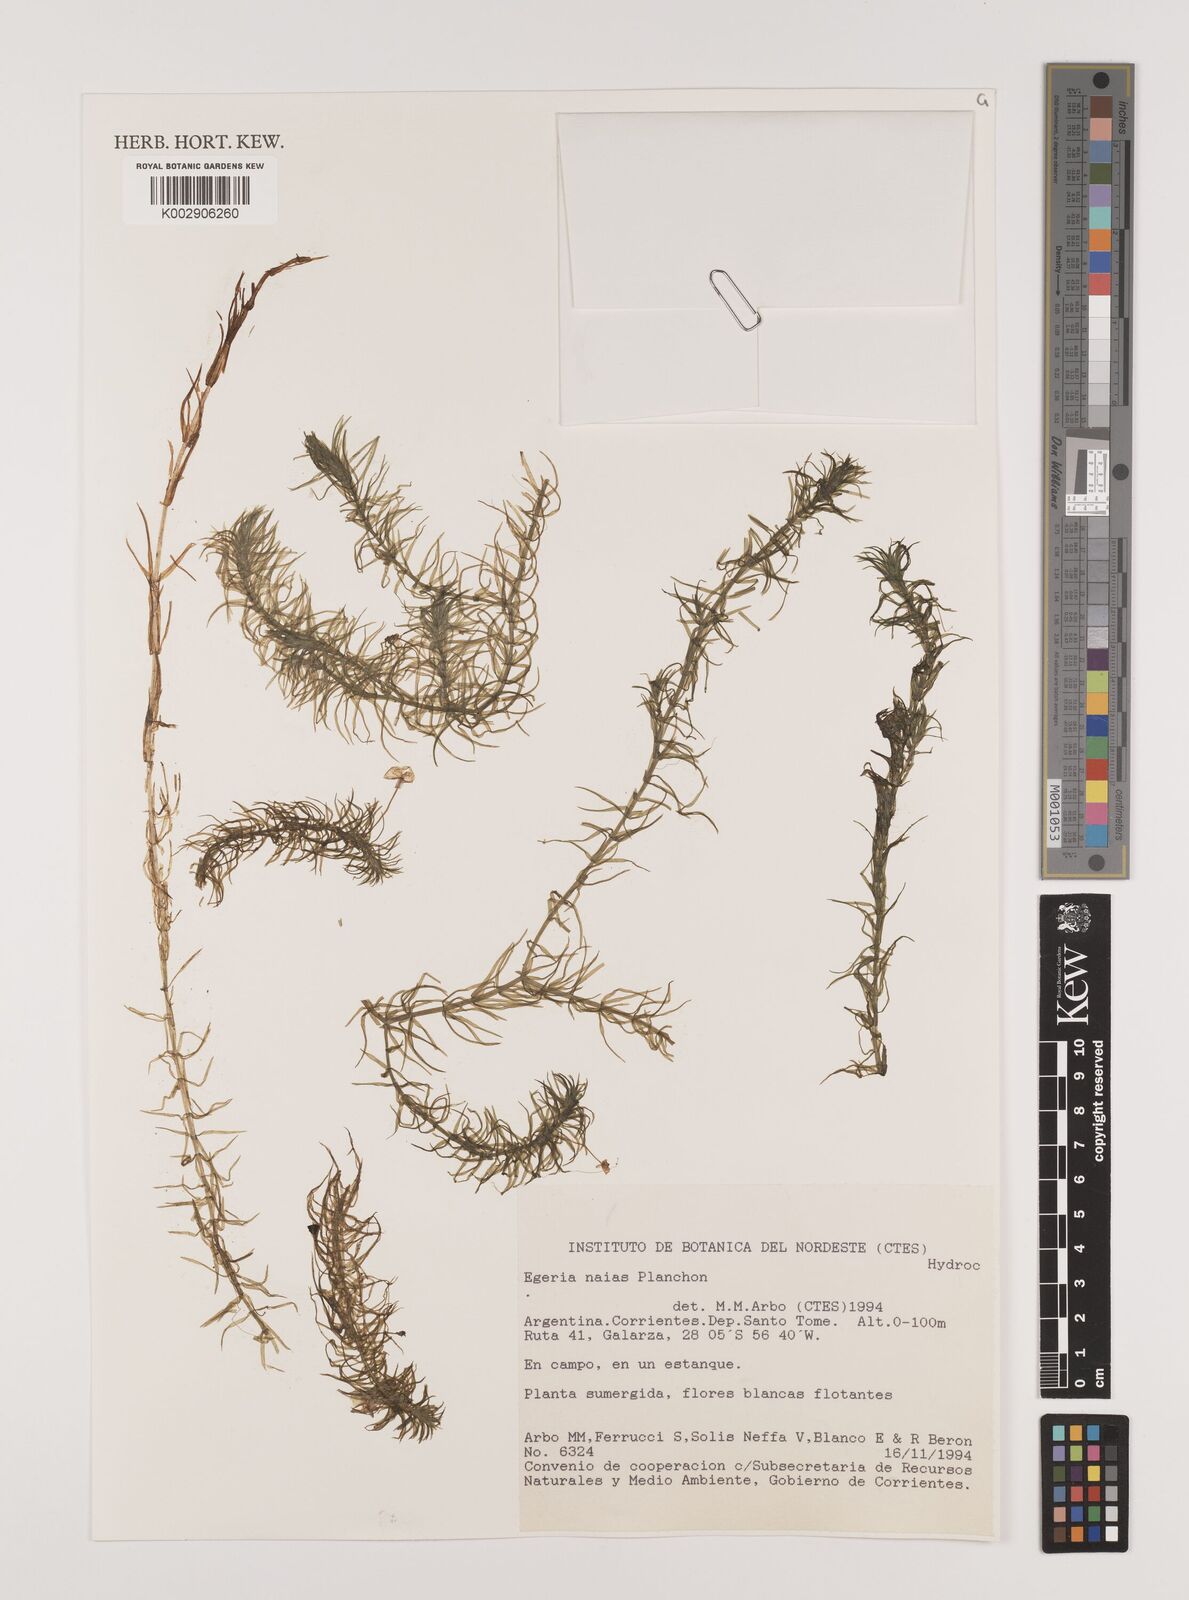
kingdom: Plantae
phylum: Tracheophyta
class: Liliopsida
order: Alismatales
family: Hydrocharitaceae
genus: Elodea
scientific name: Elodea najas
